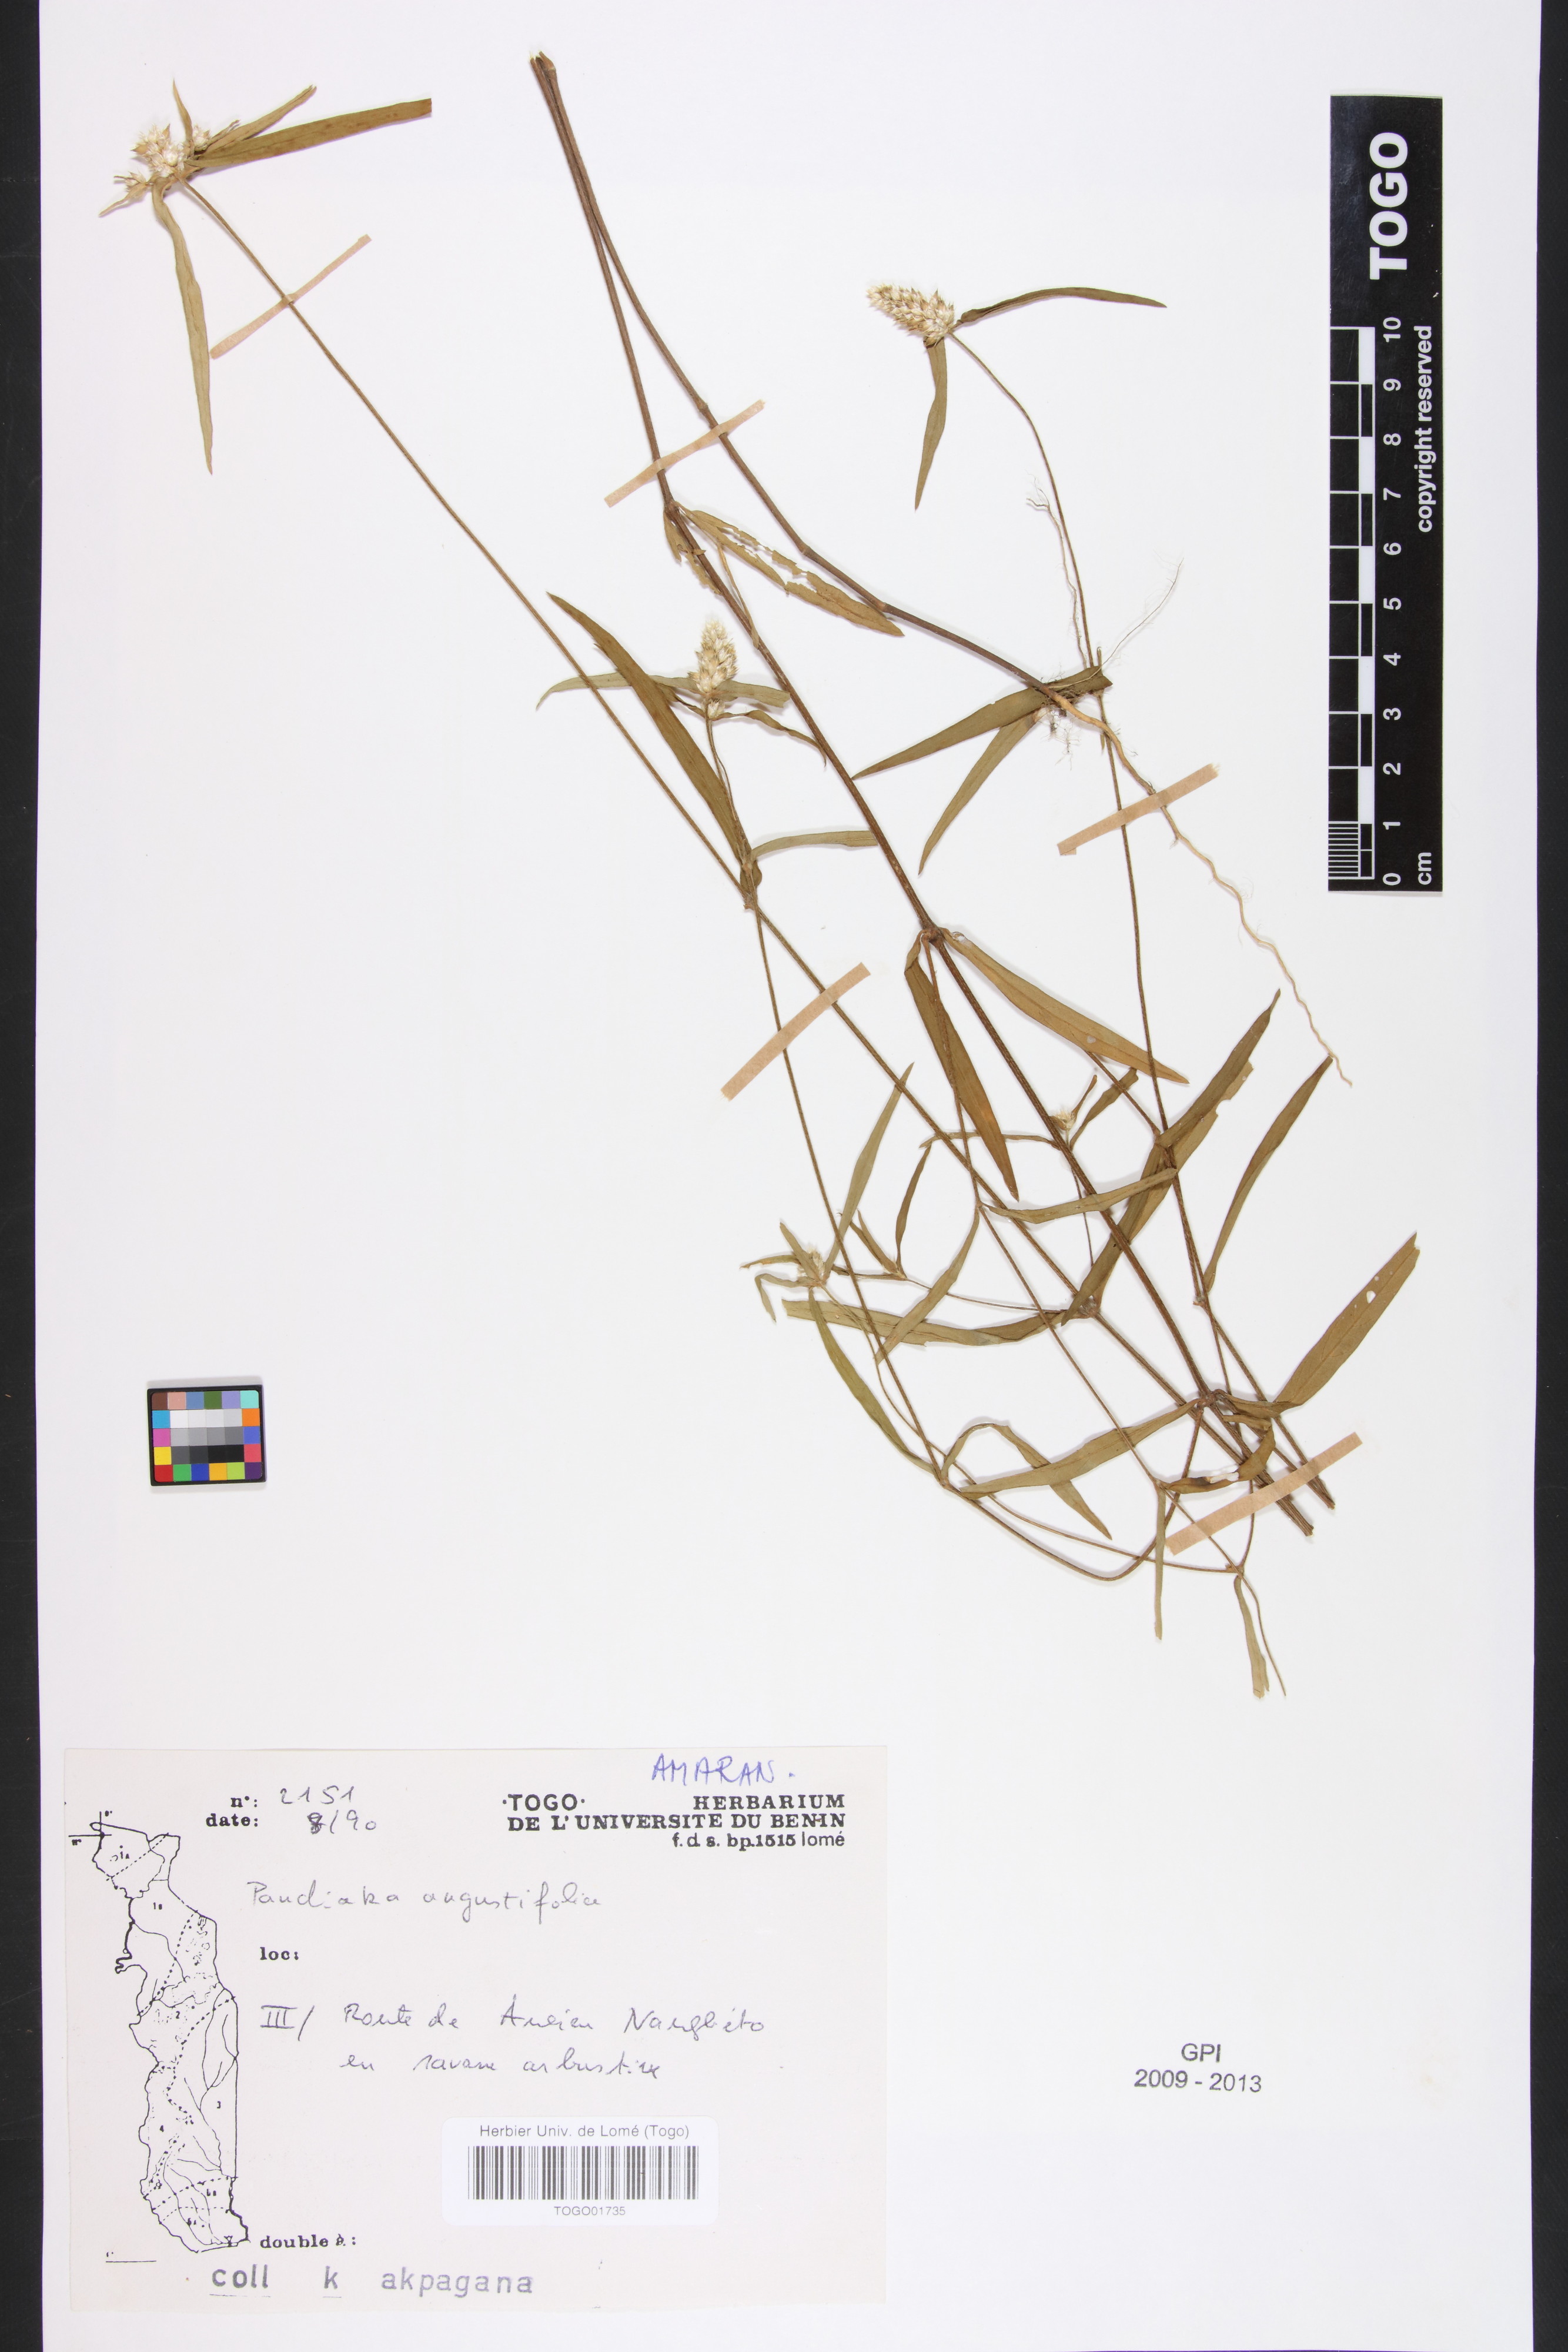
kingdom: Plantae
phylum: Tracheophyta
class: Magnoliopsida
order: Caryophyllales
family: Amaranthaceae
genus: Pandiaka
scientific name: Pandiaka angustifolia
